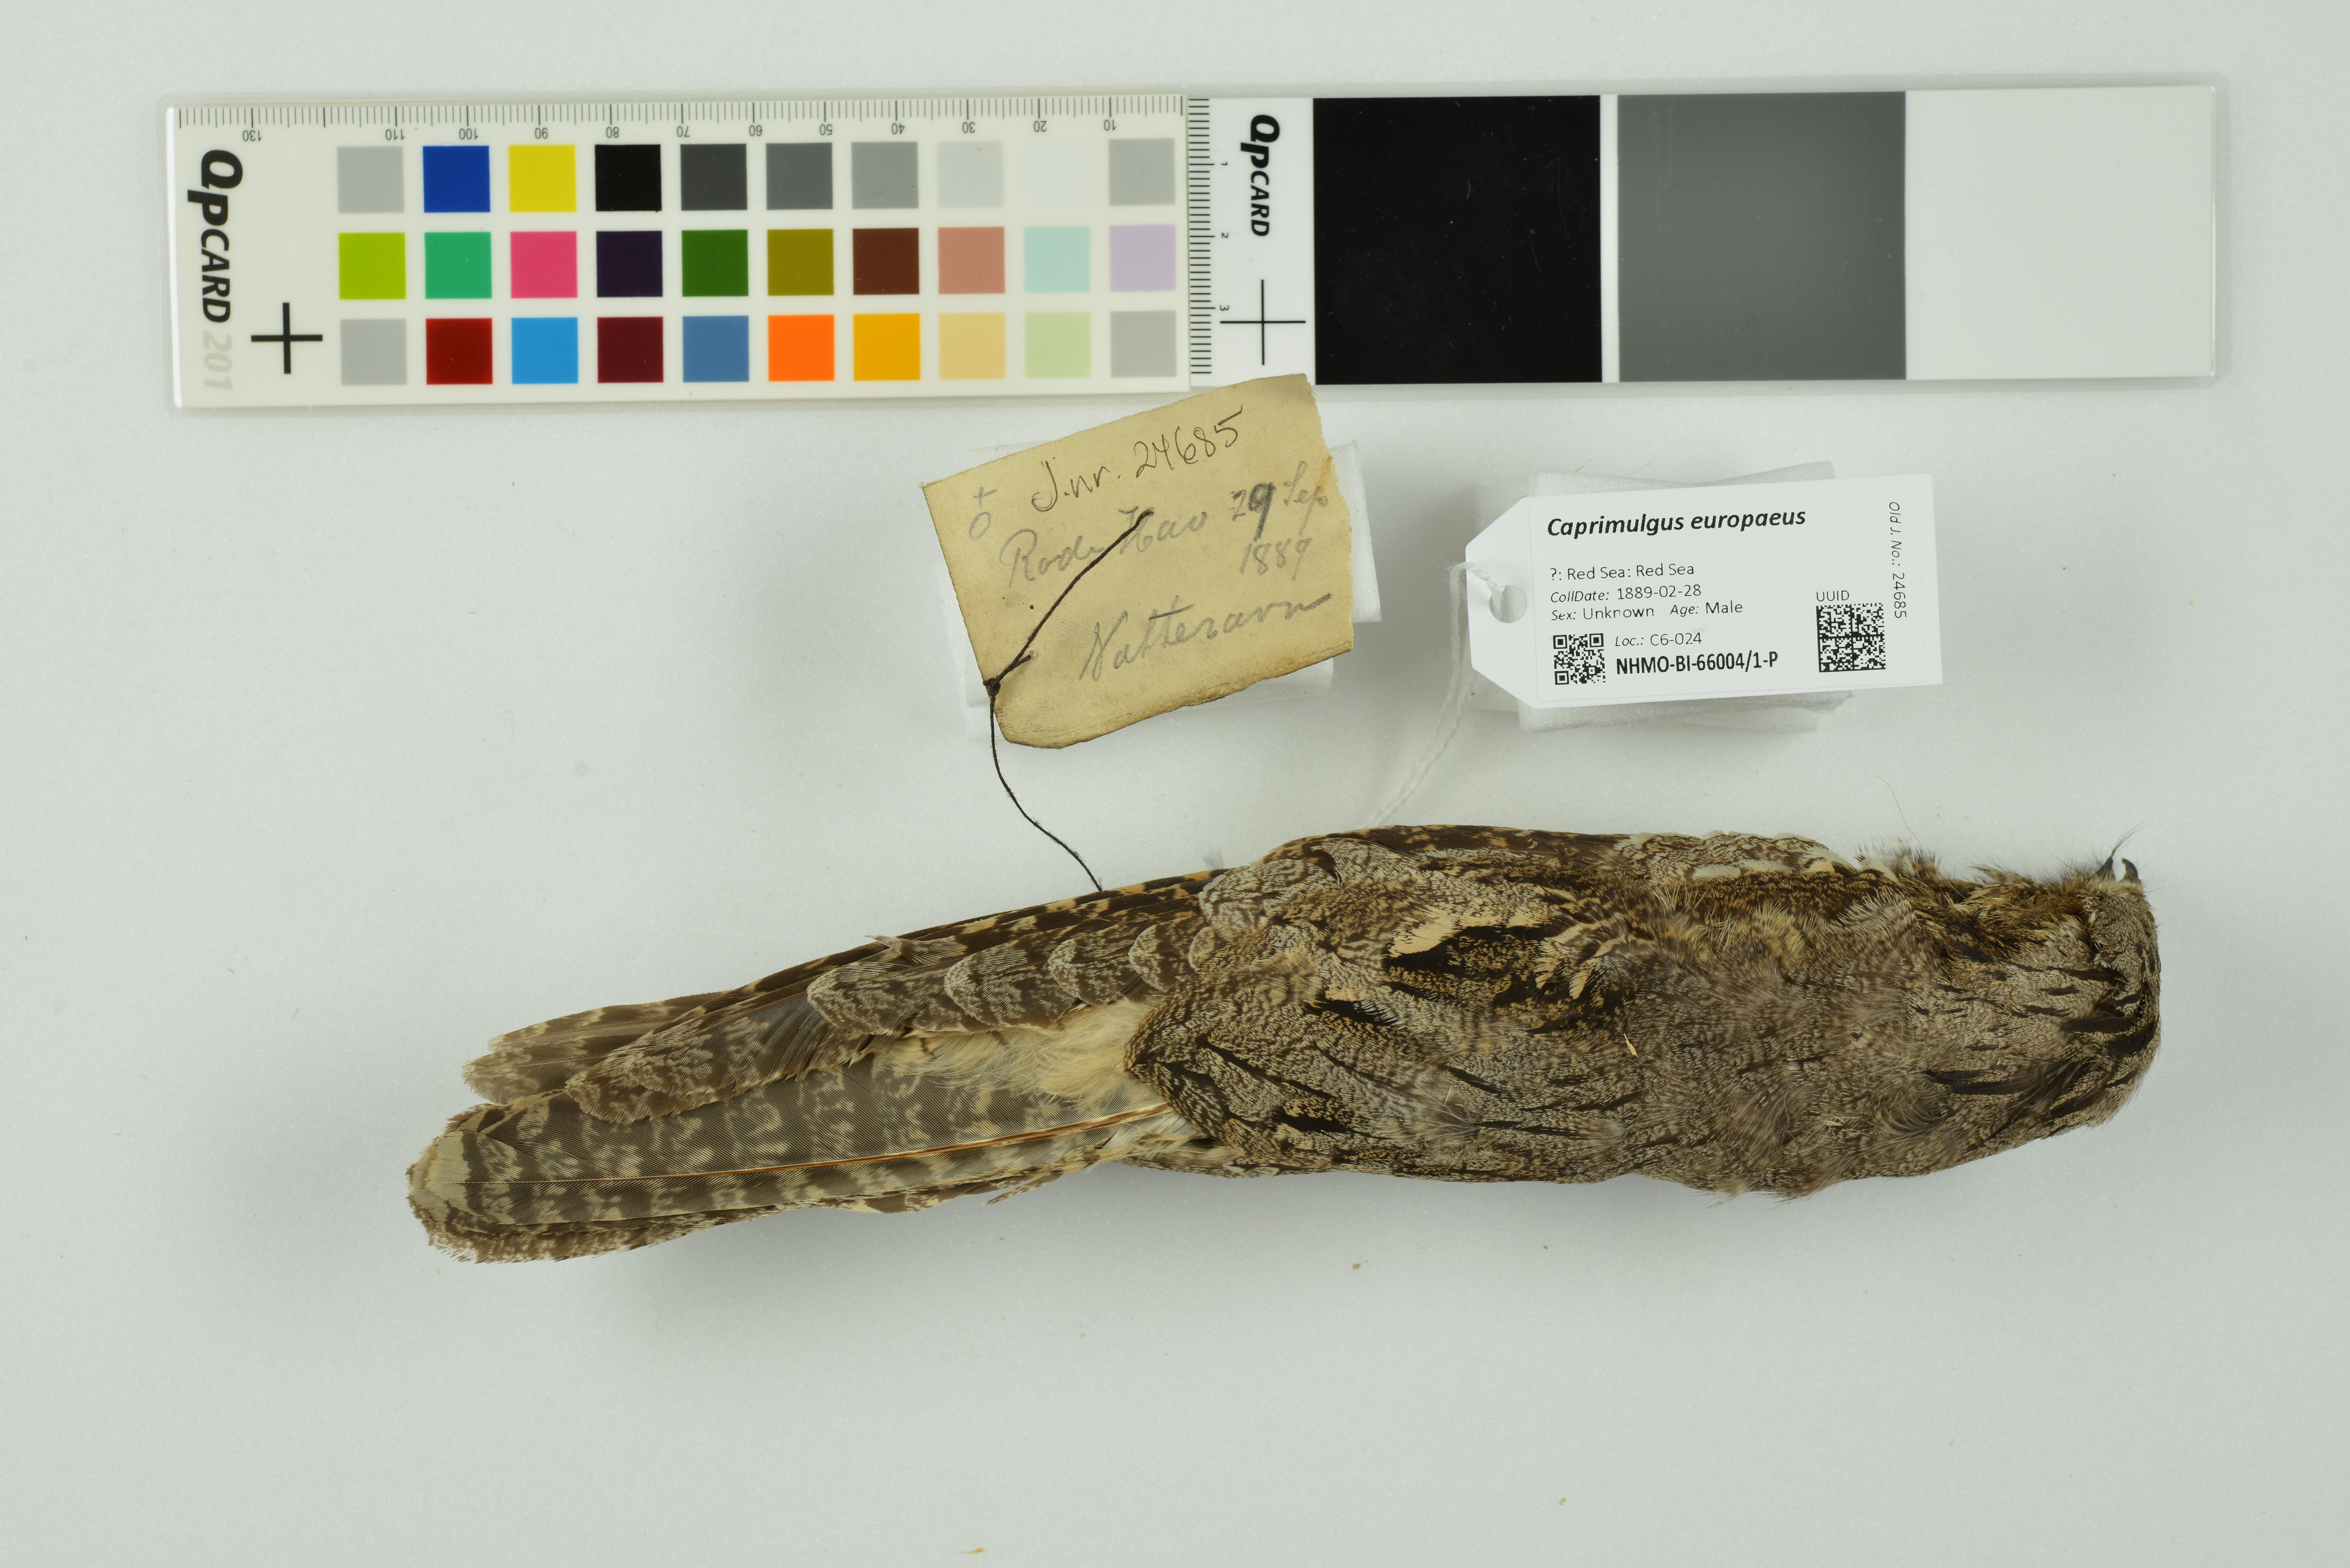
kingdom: Animalia
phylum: Chordata
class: Aves
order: Caprimulgiformes
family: Caprimulgidae
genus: Caprimulgus
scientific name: Caprimulgus europaeus
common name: European nightjar
